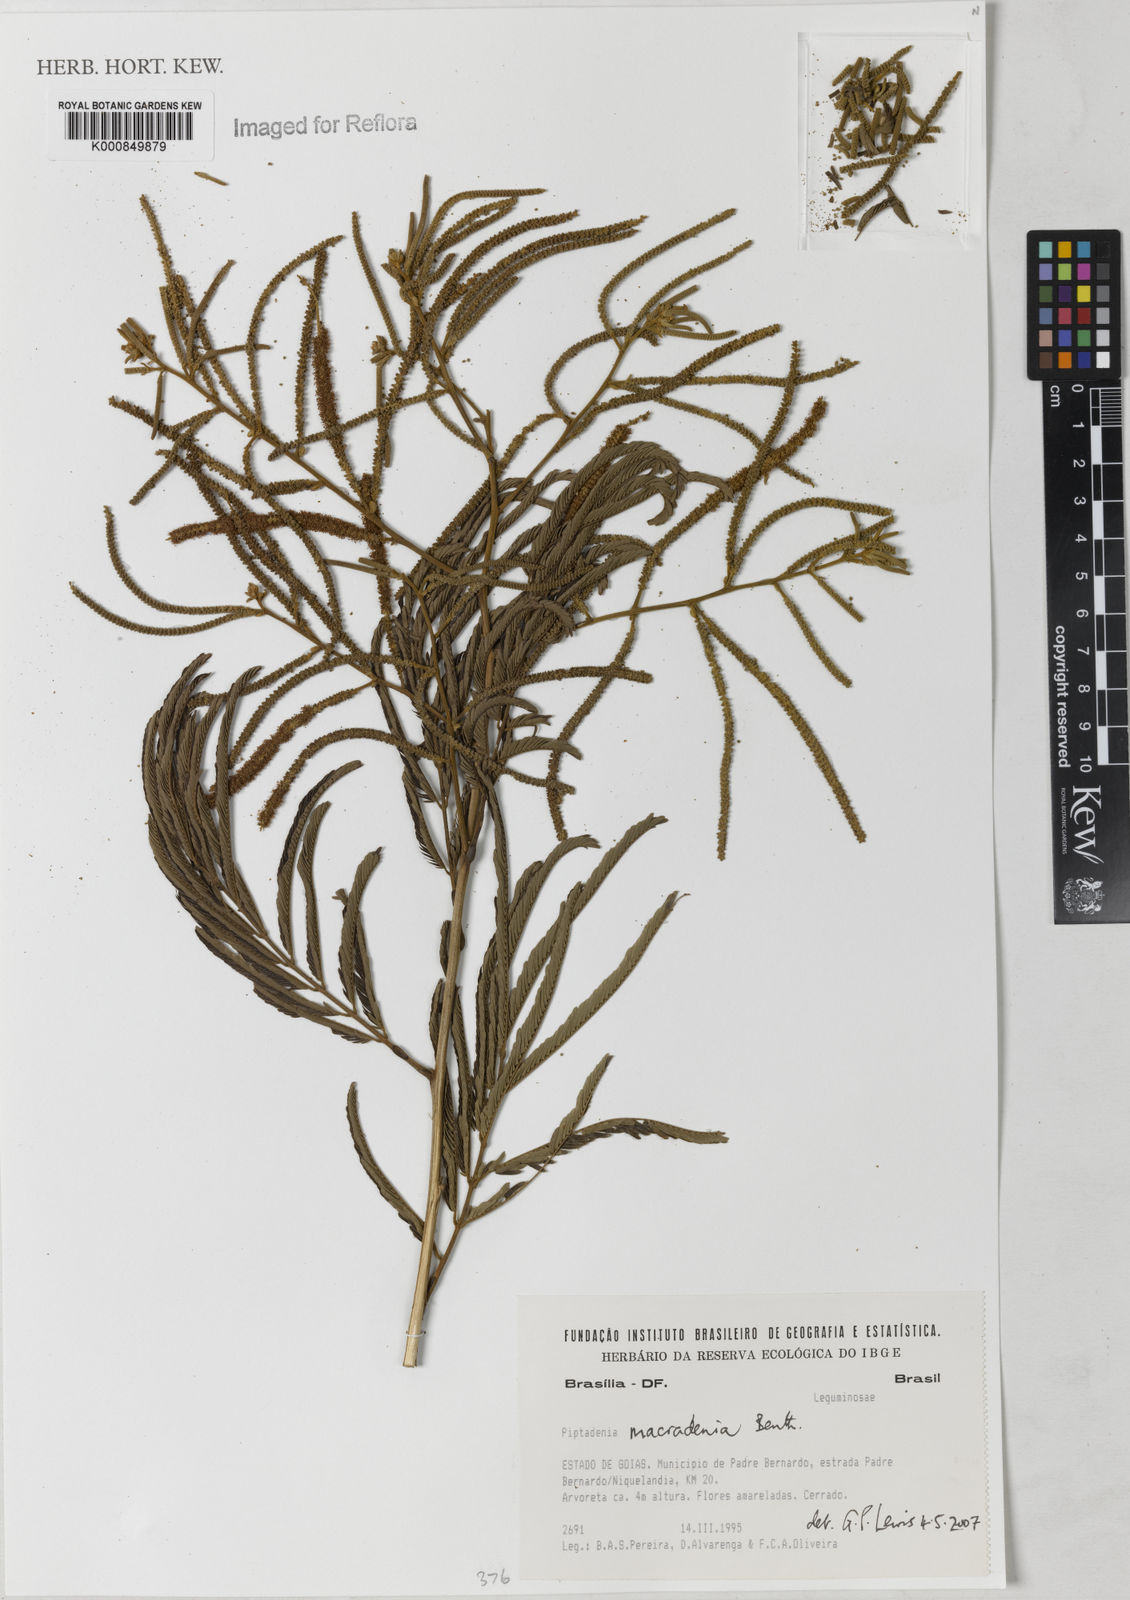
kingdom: Plantae
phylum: Tracheophyta
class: Magnoliopsida
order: Fabales
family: Fabaceae
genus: Piptadenia
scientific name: Piptadenia macradenia
